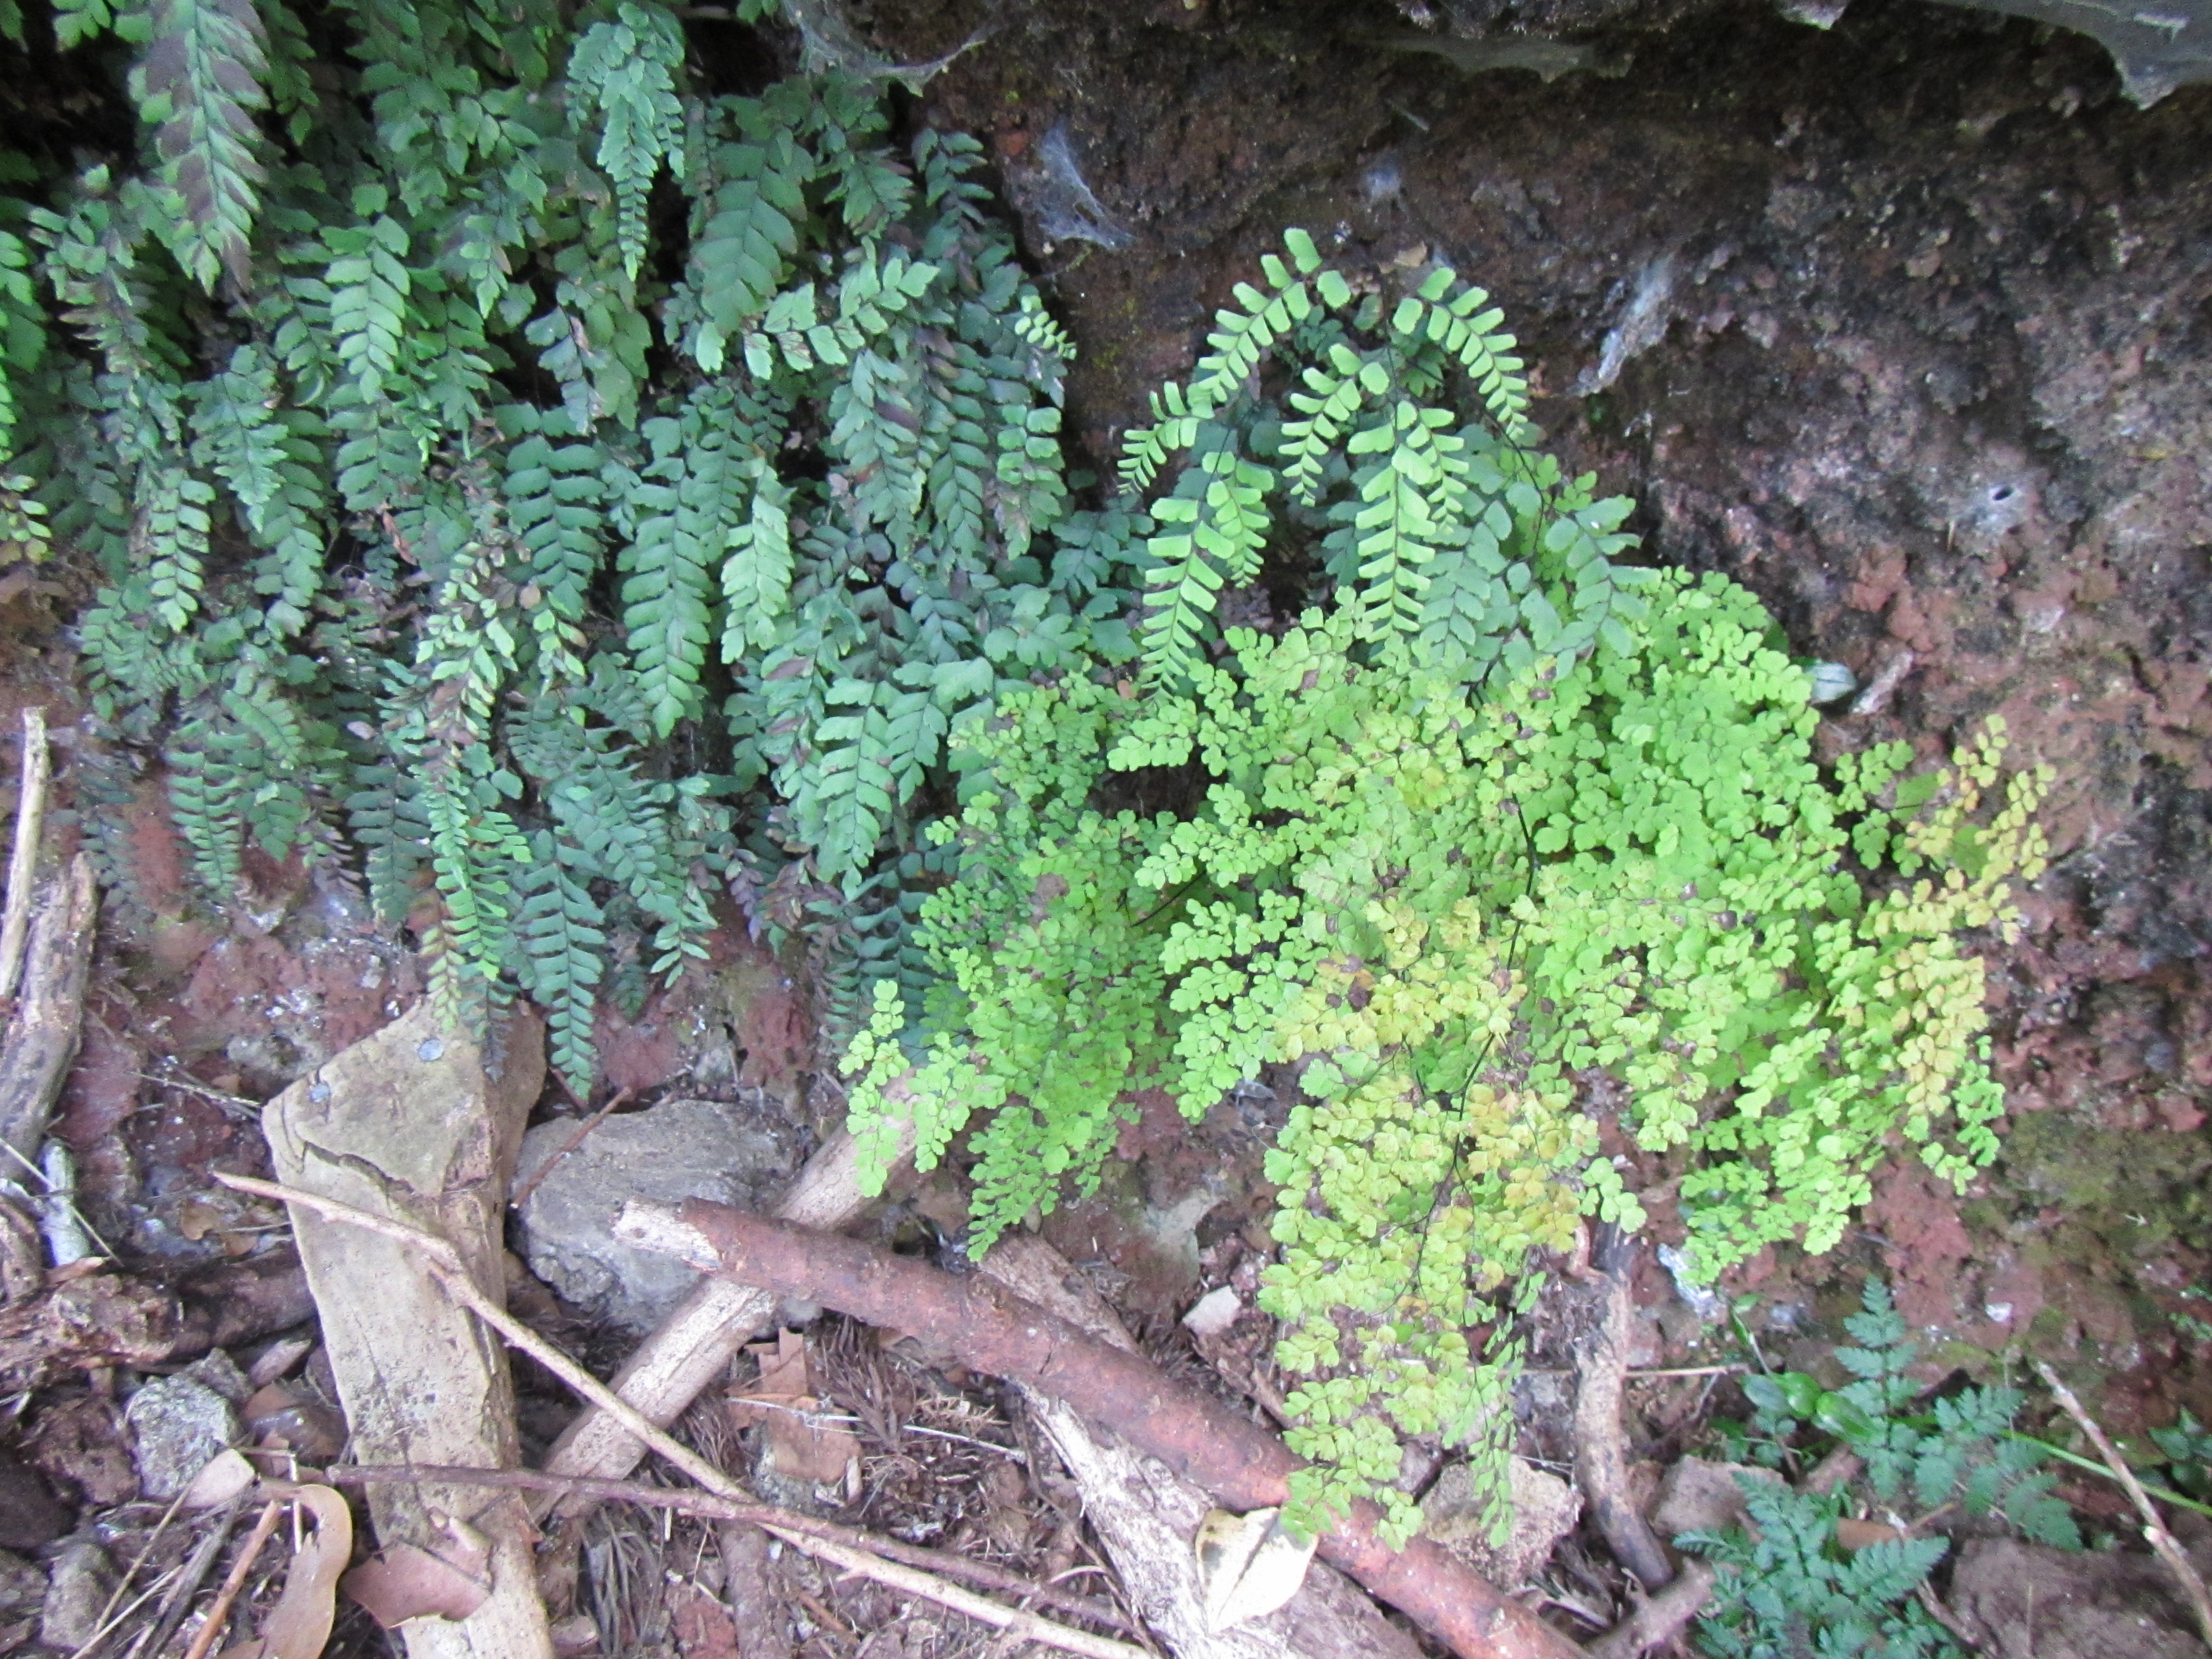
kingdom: Plantae
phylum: Tracheophyta
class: Polypodiopsida
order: Polypodiales
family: Pteridaceae
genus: Adiantum
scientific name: Adiantum aethiopicum
